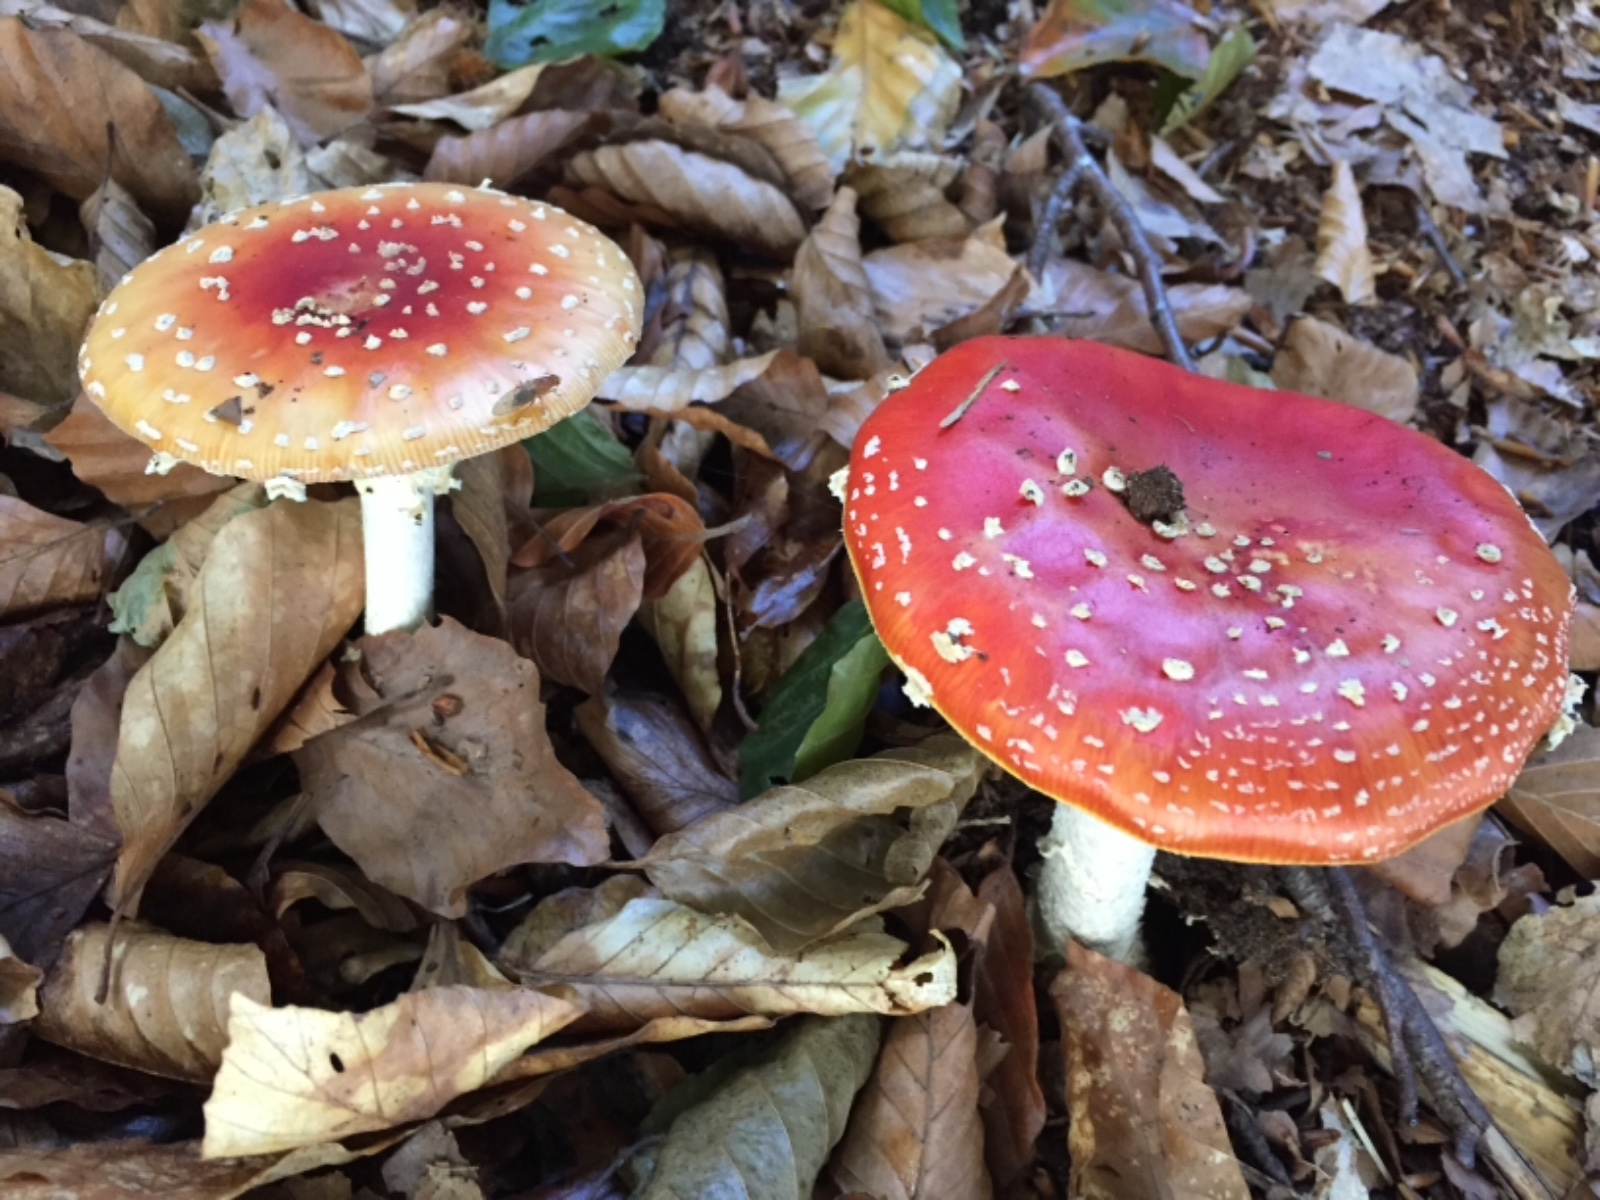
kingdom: Fungi
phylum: Basidiomycota
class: Agaricomycetes
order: Agaricales
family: Amanitaceae
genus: Amanita
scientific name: Amanita muscaria
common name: rød fluesvamp
